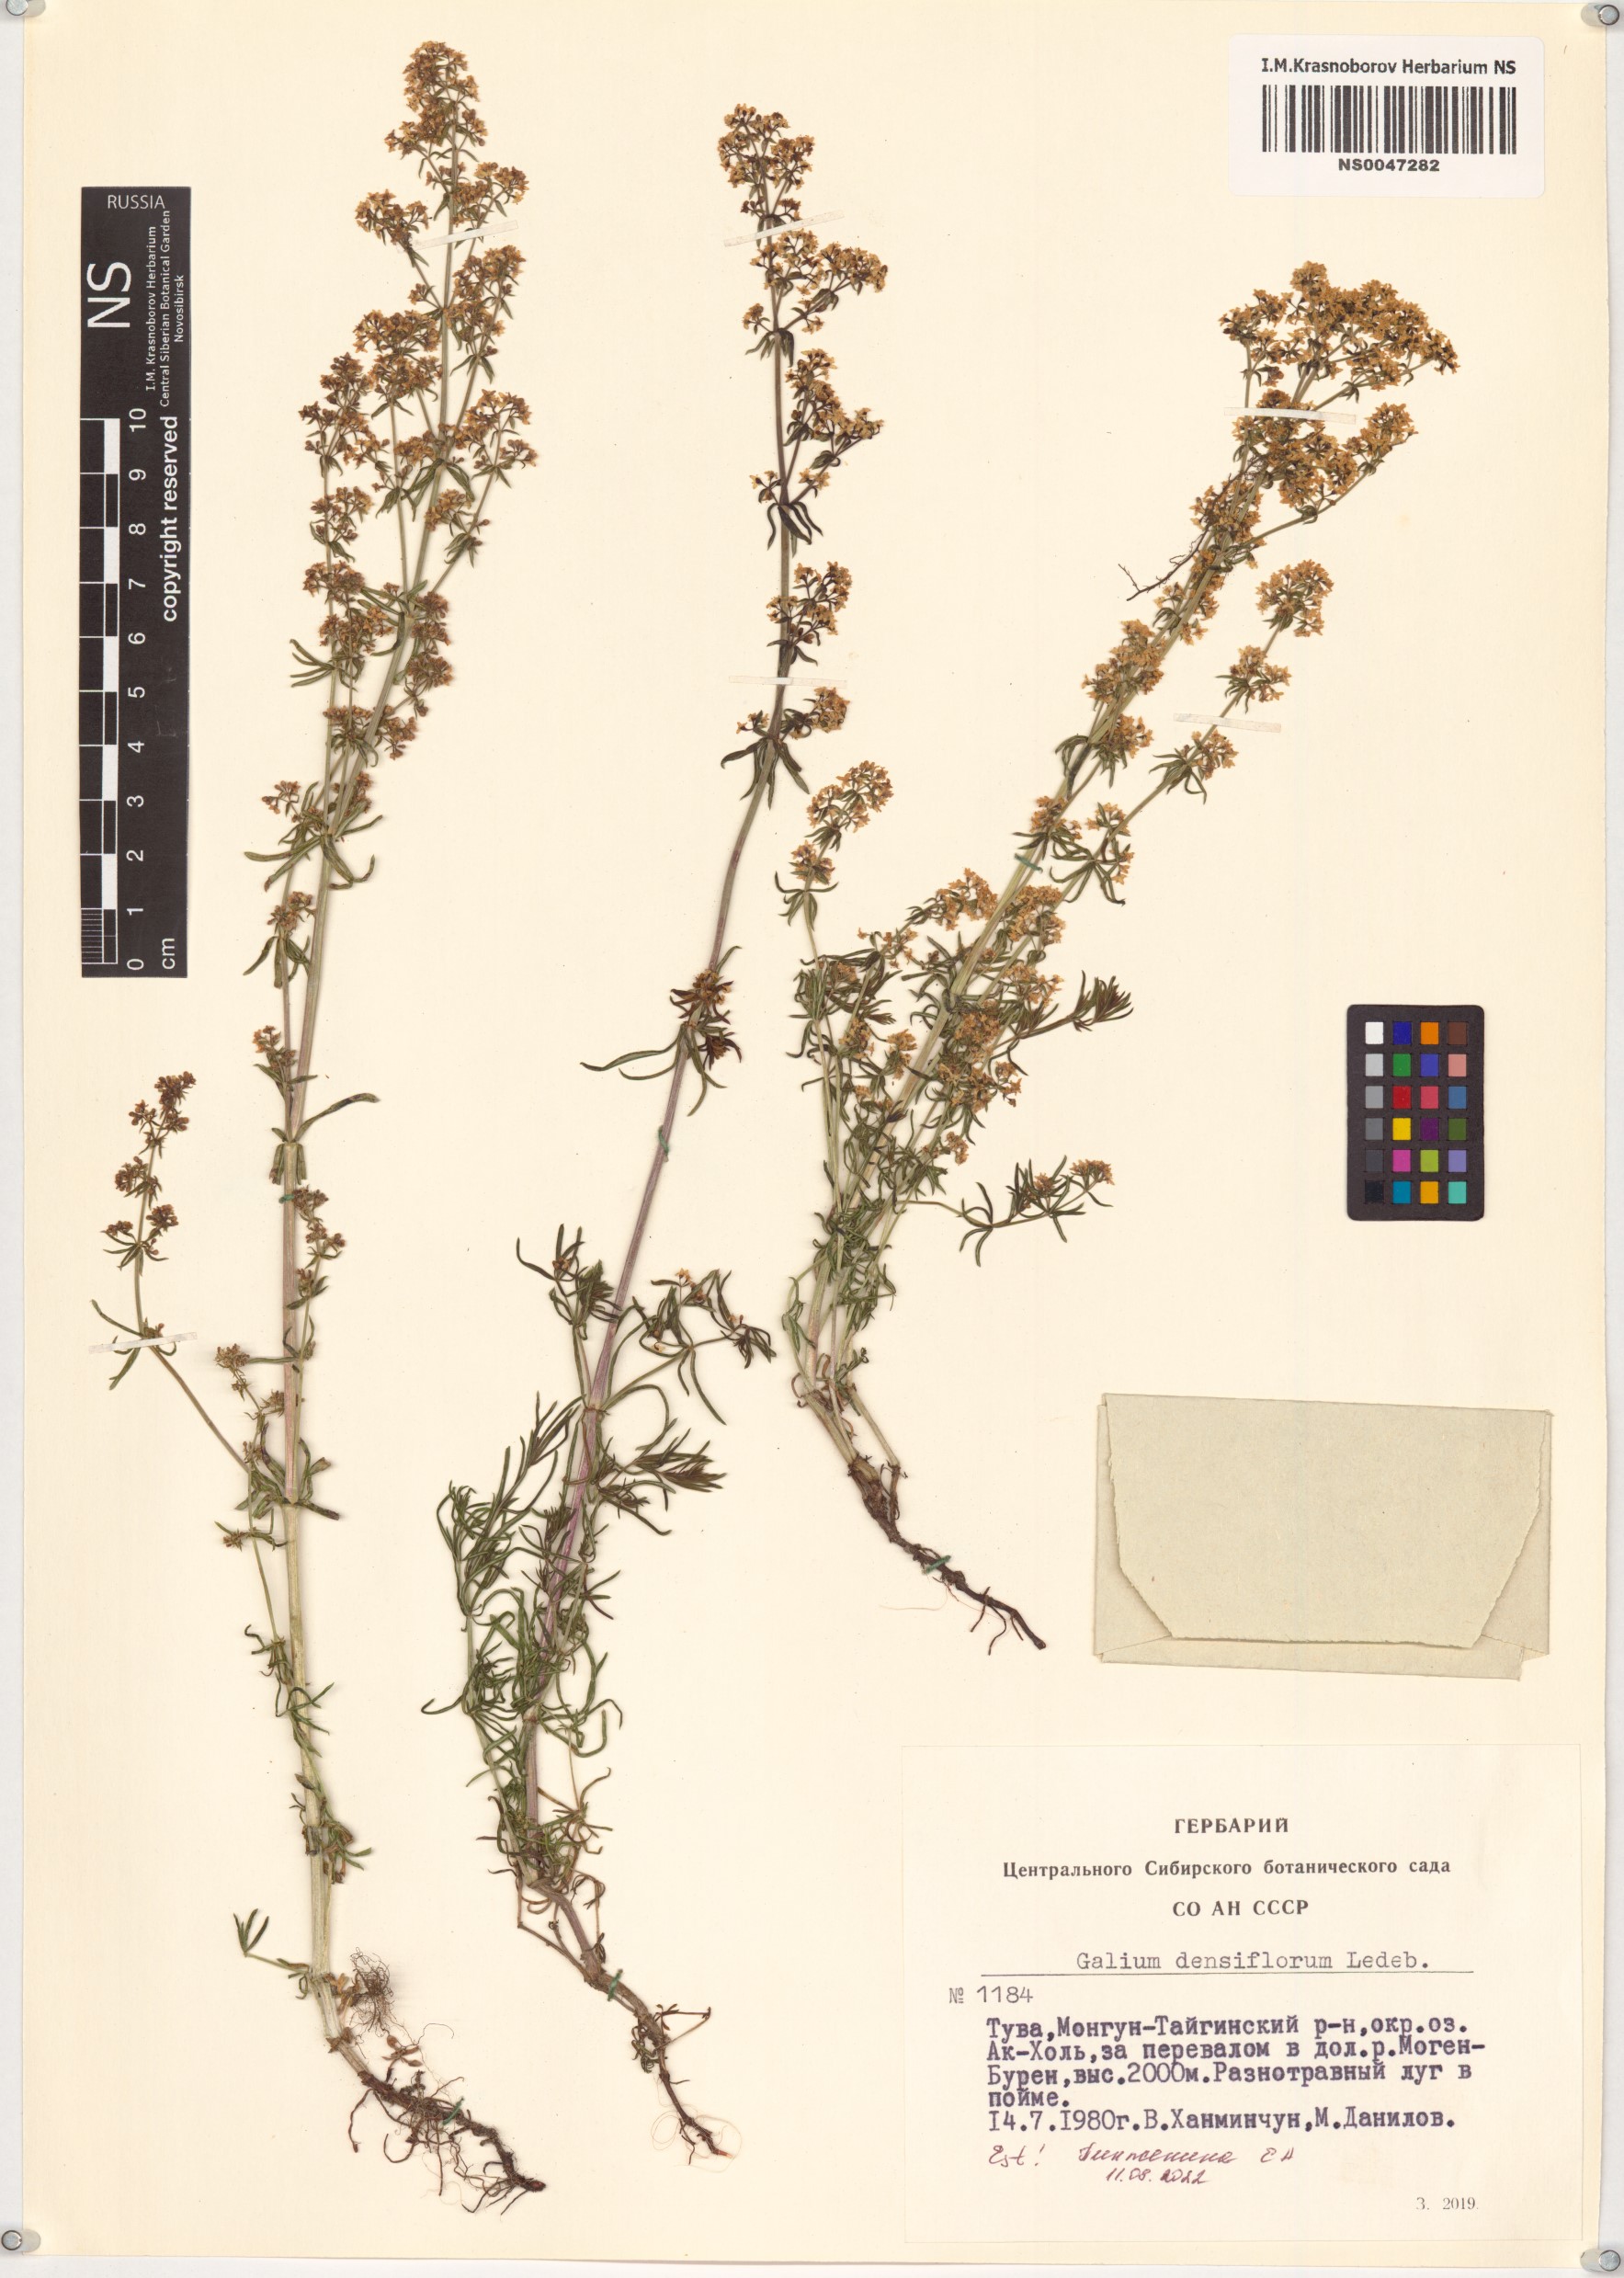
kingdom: Plantae
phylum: Tracheophyta
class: Magnoliopsida
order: Gentianales
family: Rubiaceae
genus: Galium
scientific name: Galium densiflorum
